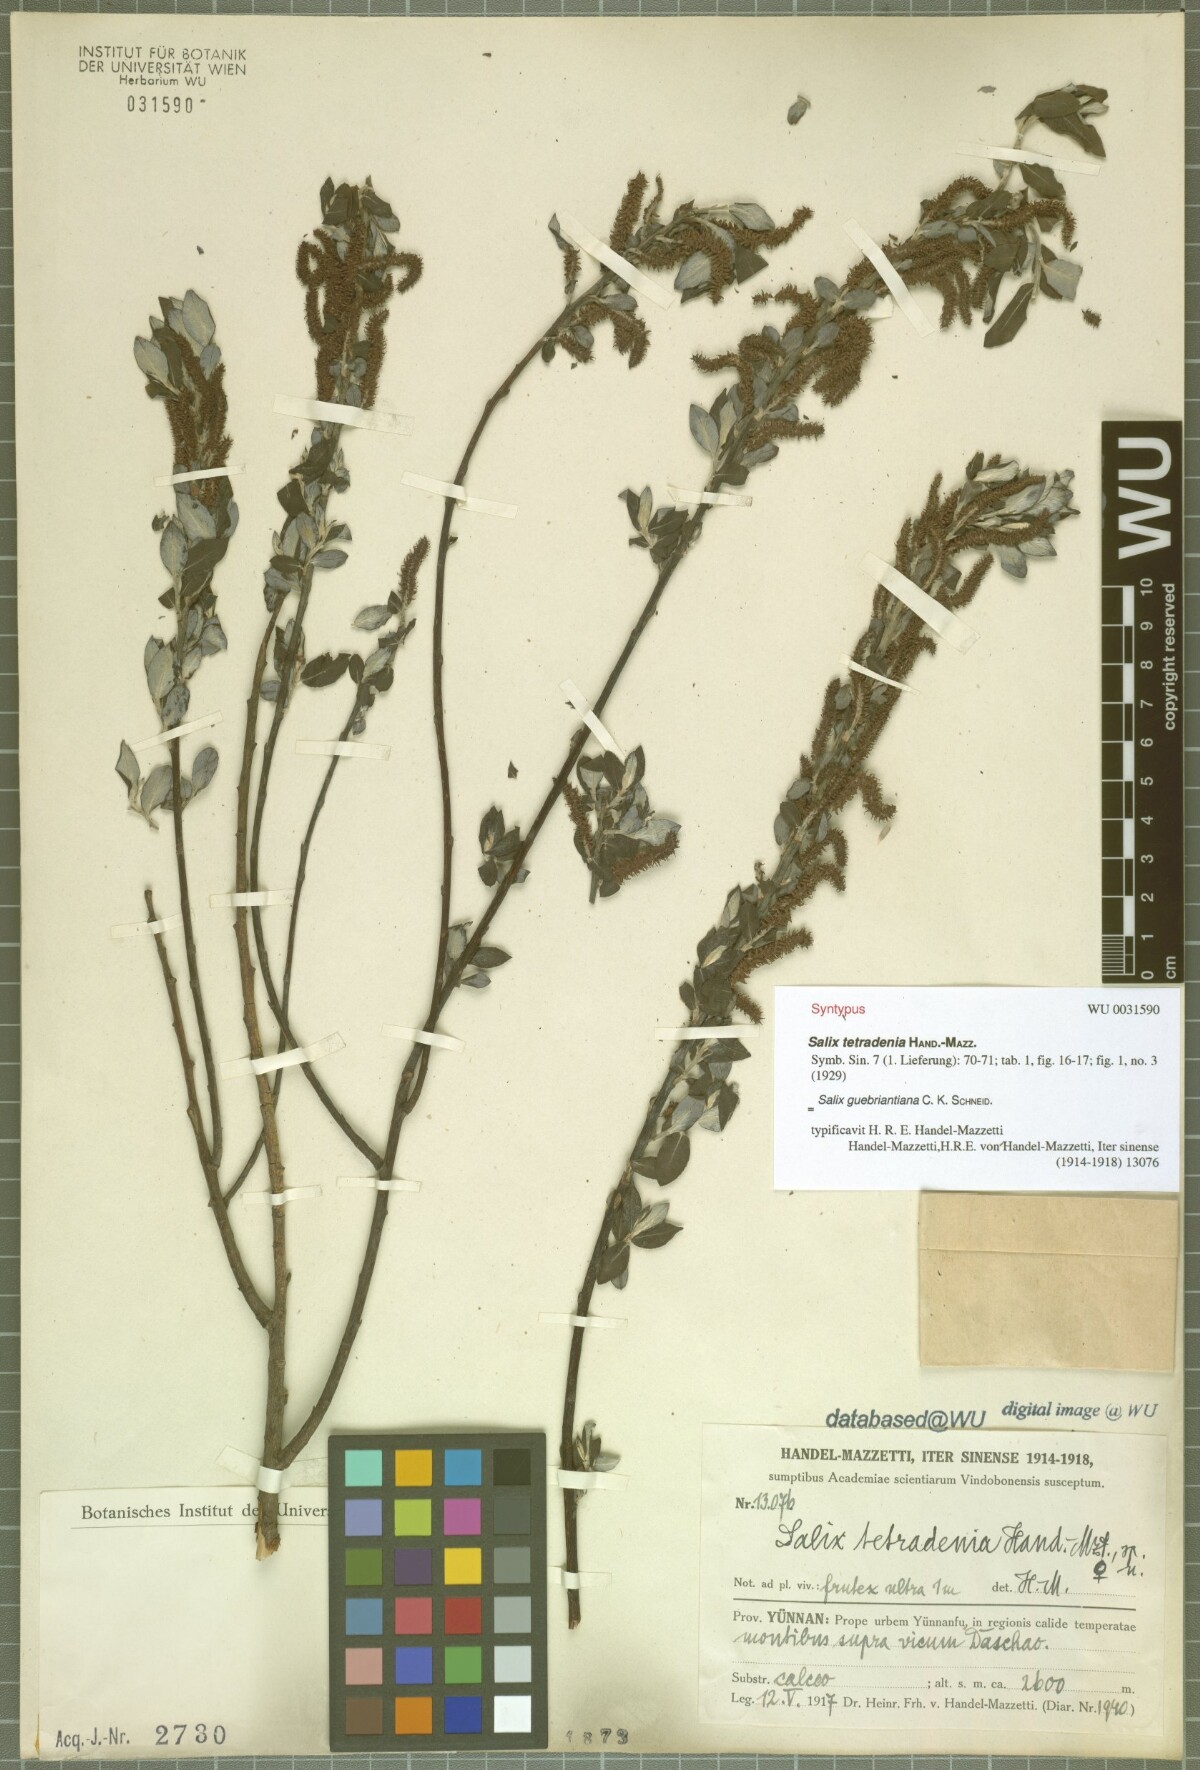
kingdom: Plantae
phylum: Tracheophyta
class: Magnoliopsida
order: Malpighiales
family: Salicaceae
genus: Salix
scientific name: Salix radinostachya
